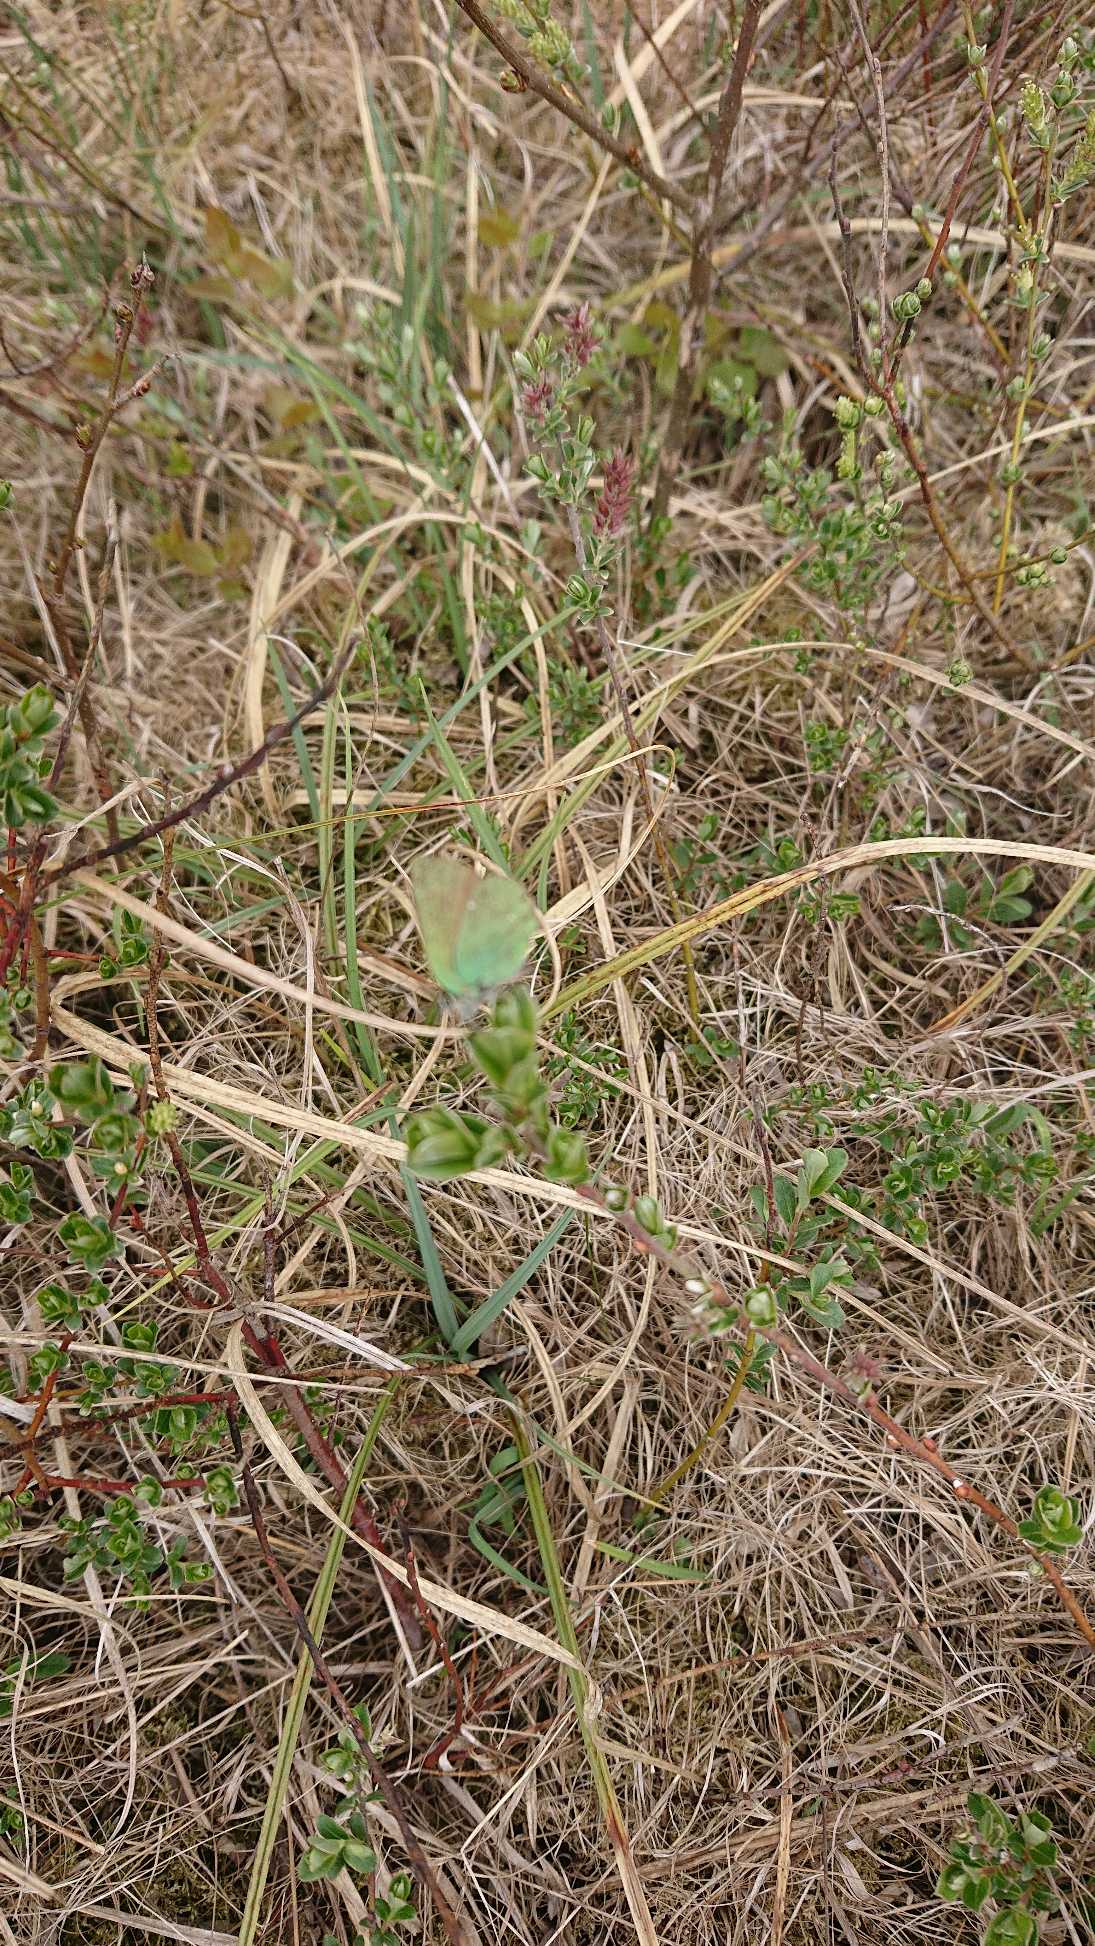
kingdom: Animalia
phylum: Arthropoda
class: Insecta
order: Lepidoptera
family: Lycaenidae
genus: Callophrys
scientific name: Callophrys rubi
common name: Grøn busksommerfugl
